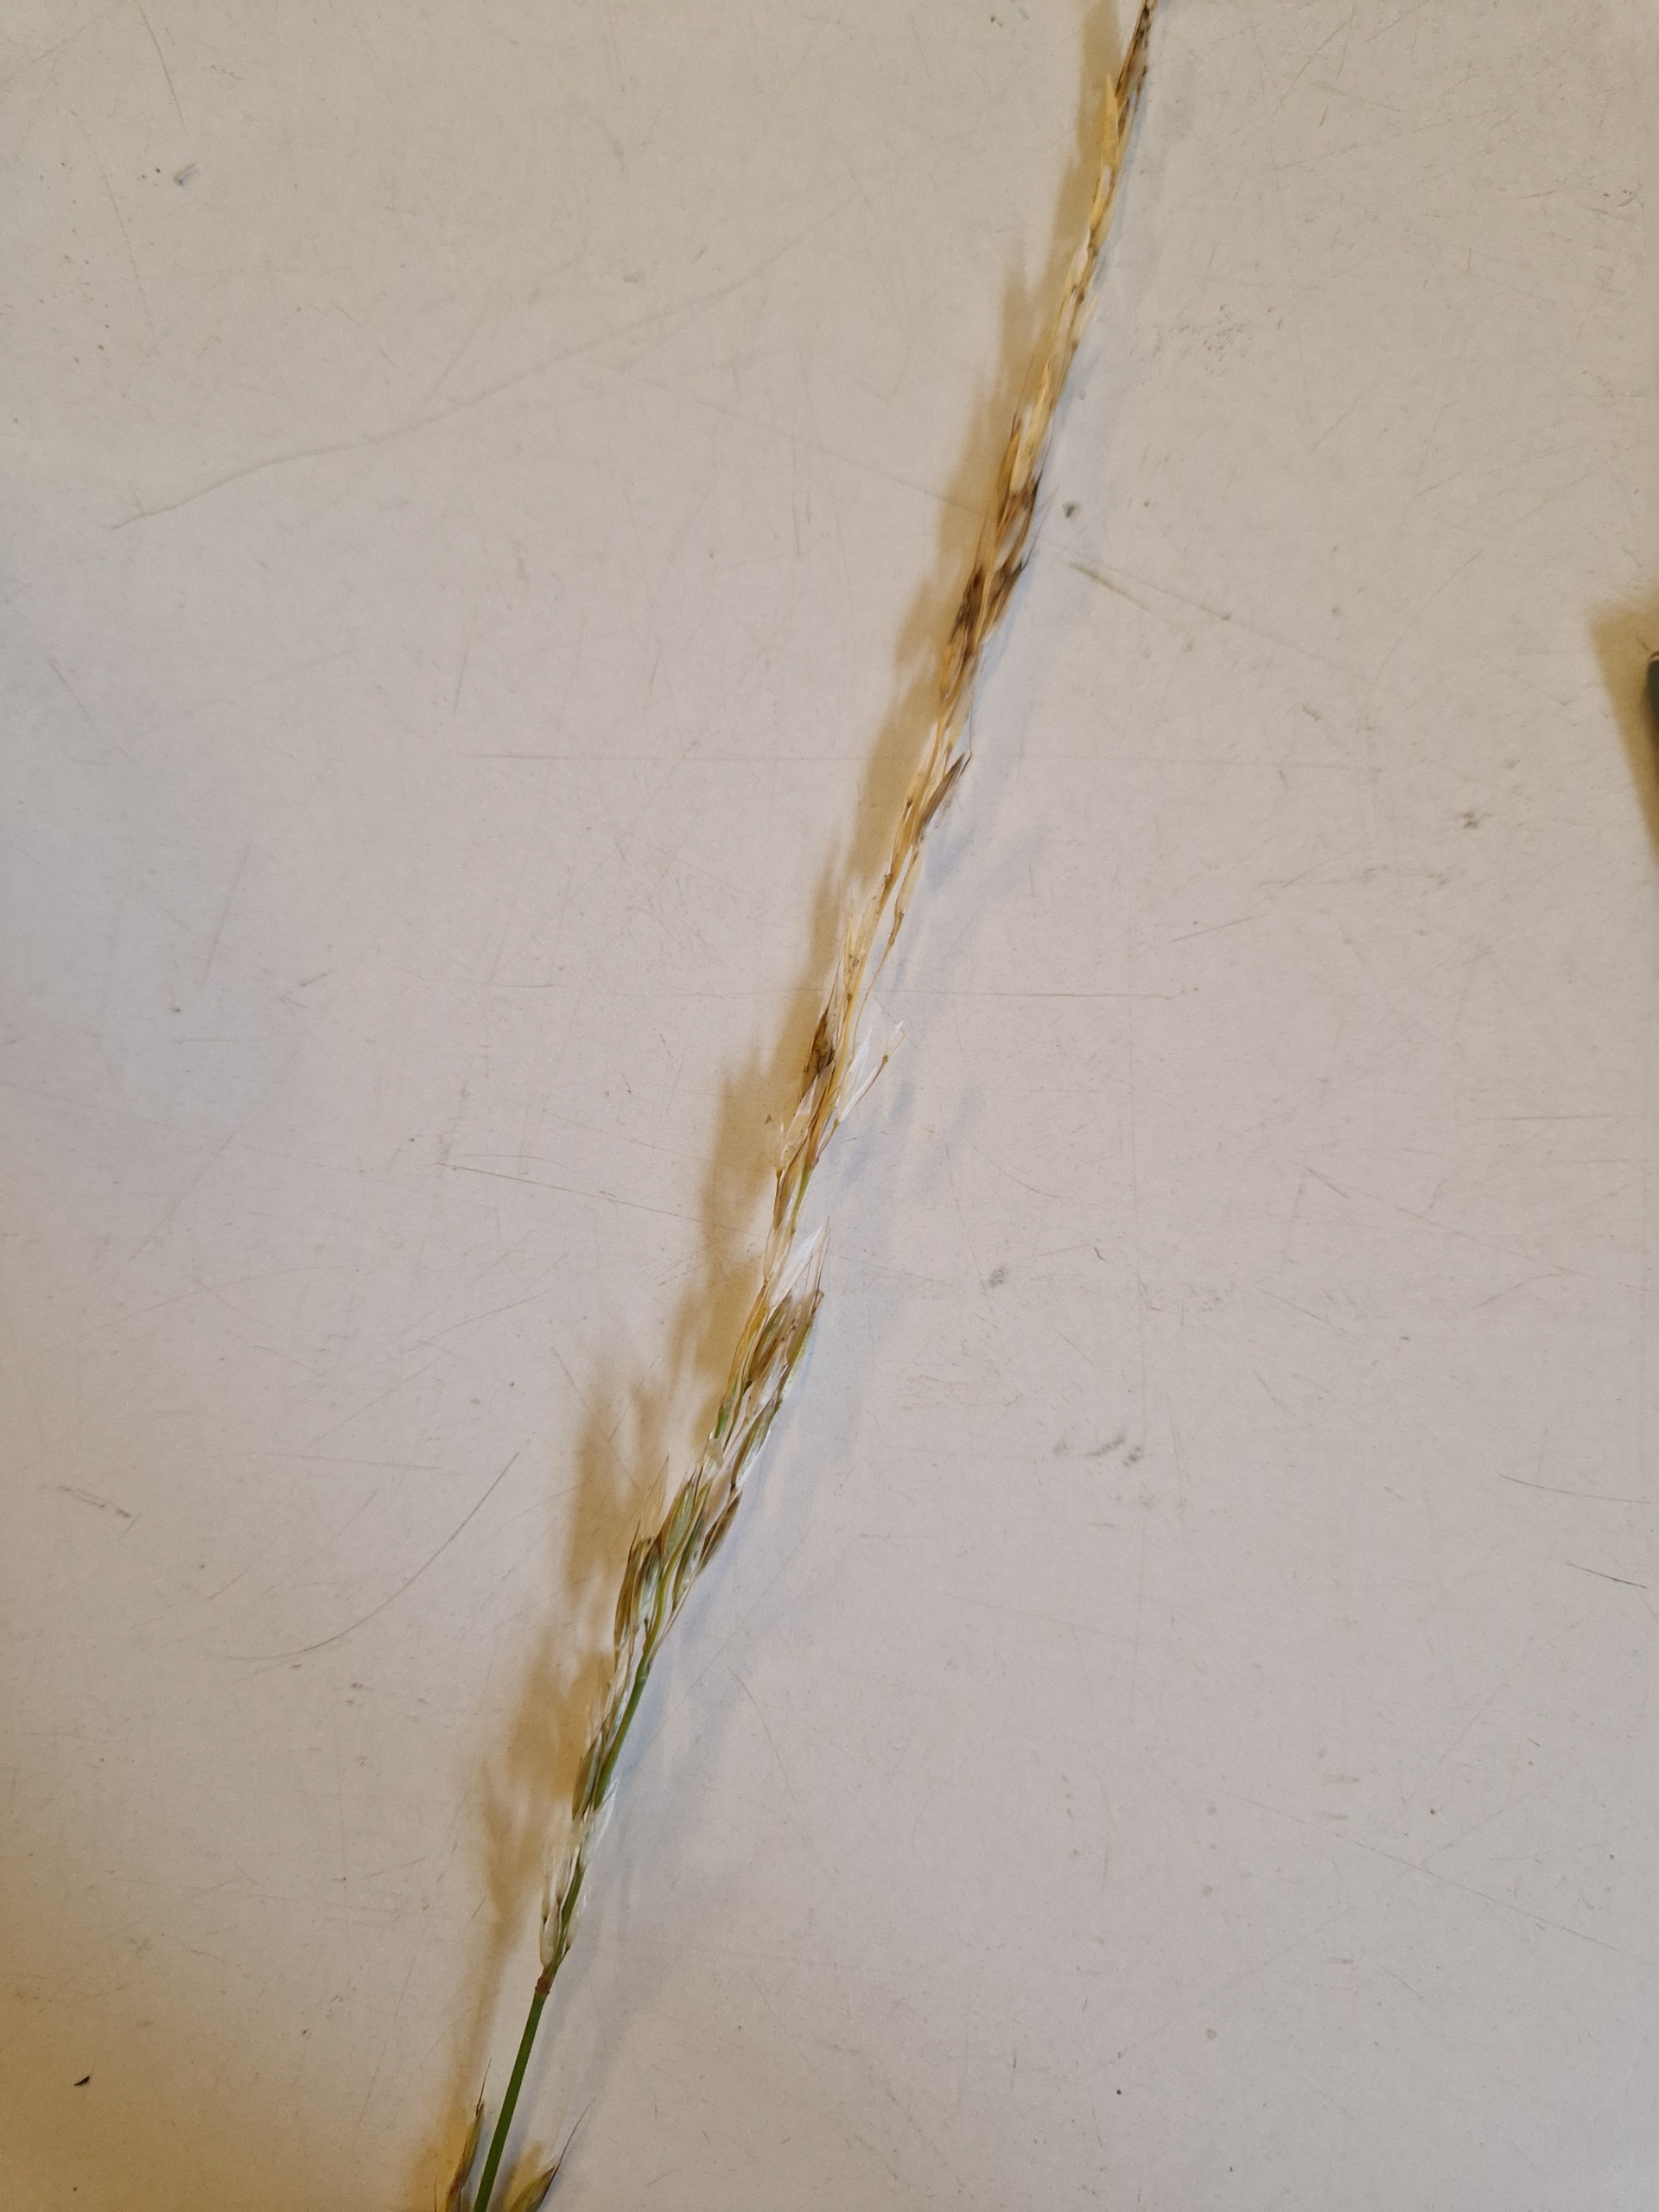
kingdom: Plantae
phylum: Tracheophyta
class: Liliopsida
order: Poales
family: Poaceae
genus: Arrhenatherum
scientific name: Arrhenatherum elatius
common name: Draphavre
